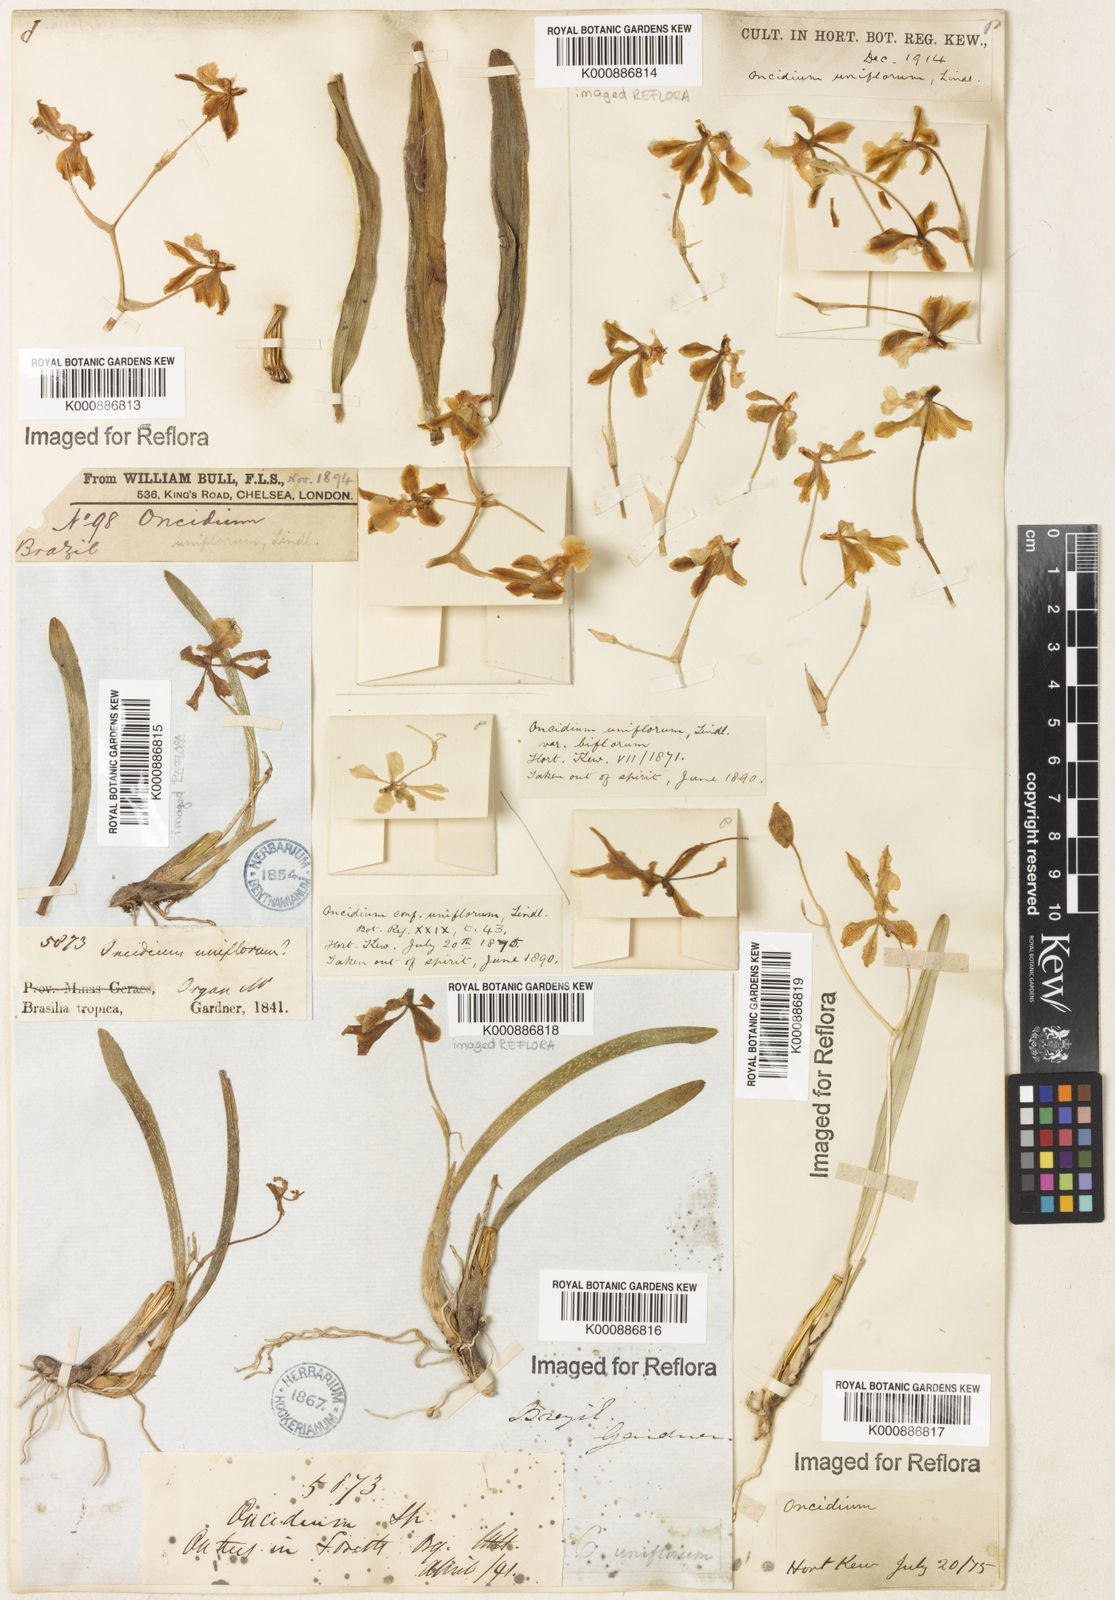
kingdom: Plantae
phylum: Tracheophyta
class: Liliopsida
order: Asparagales
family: Orchidaceae
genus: Gomesa
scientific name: Gomesa uniflora
